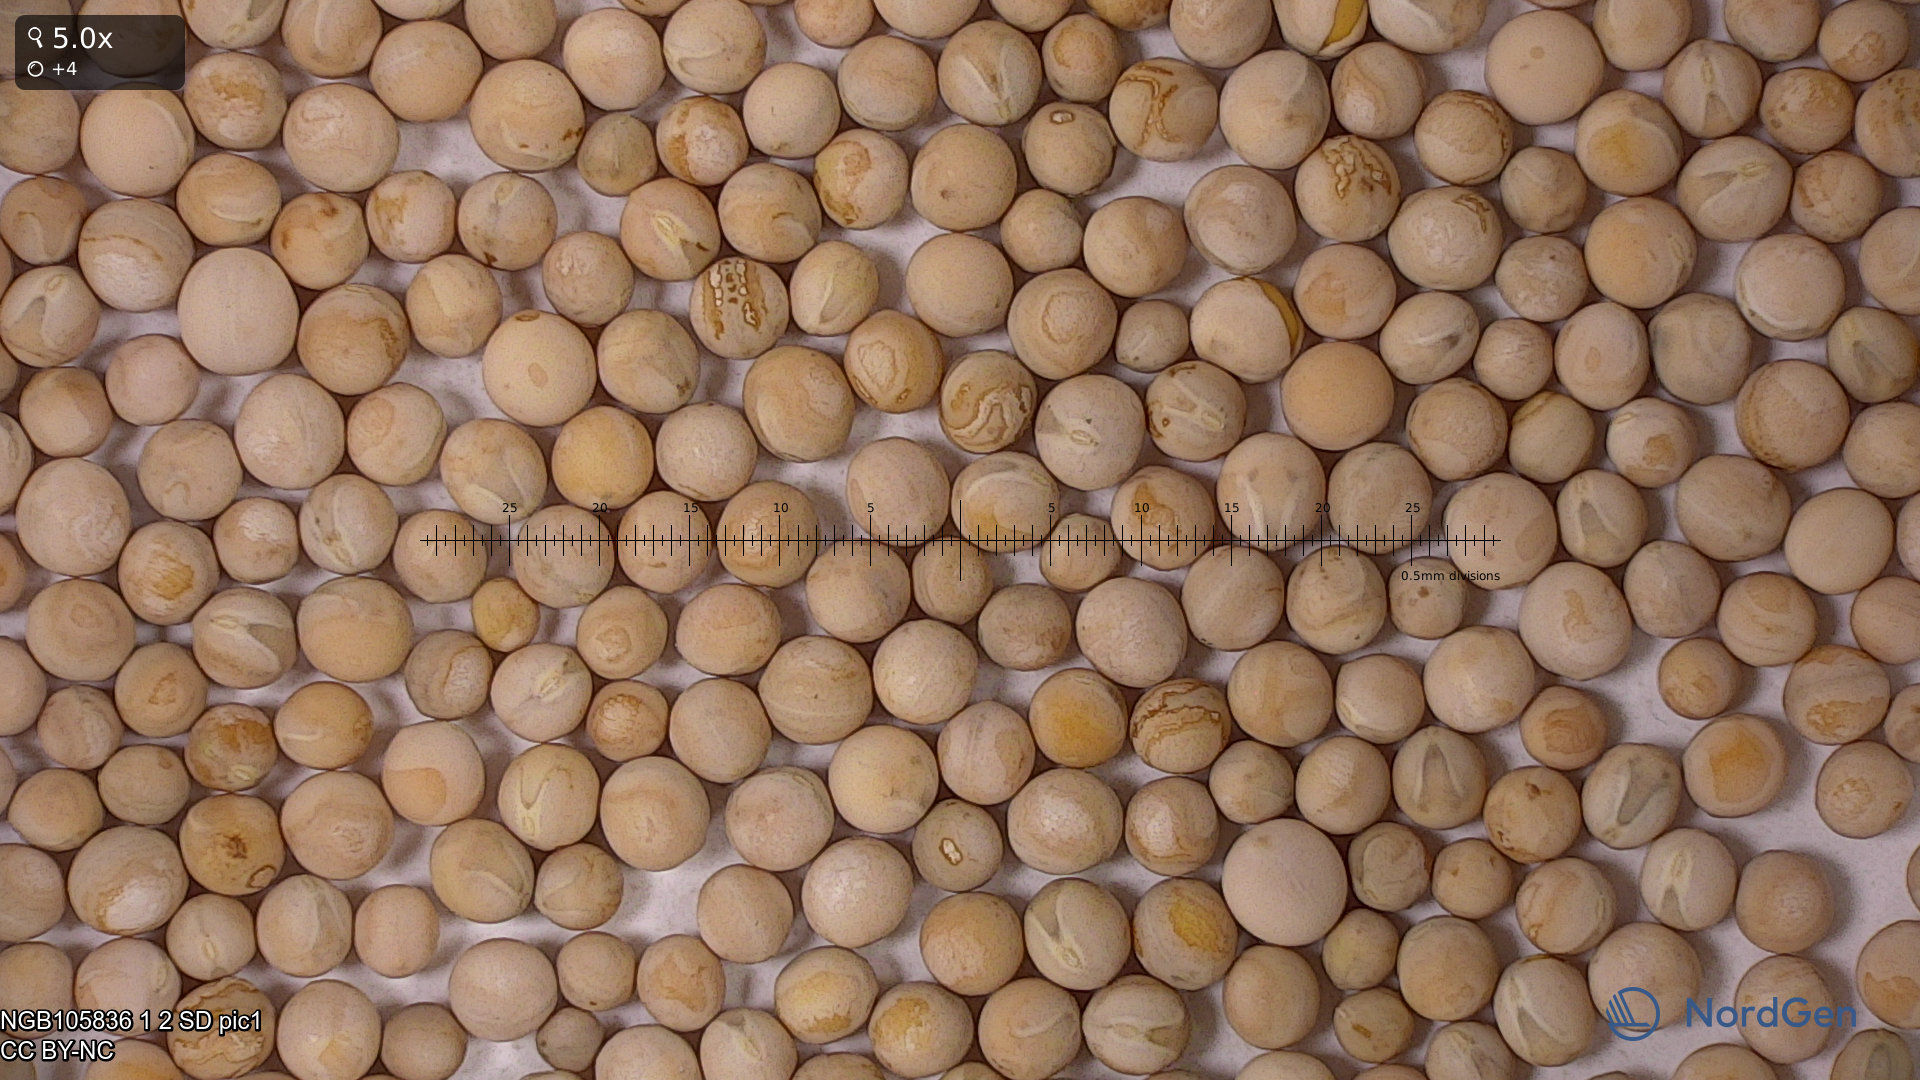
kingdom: Plantae
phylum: Tracheophyta
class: Magnoliopsida
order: Fabales
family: Fabaceae
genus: Lathyrus
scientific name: Lathyrus oleraceus
